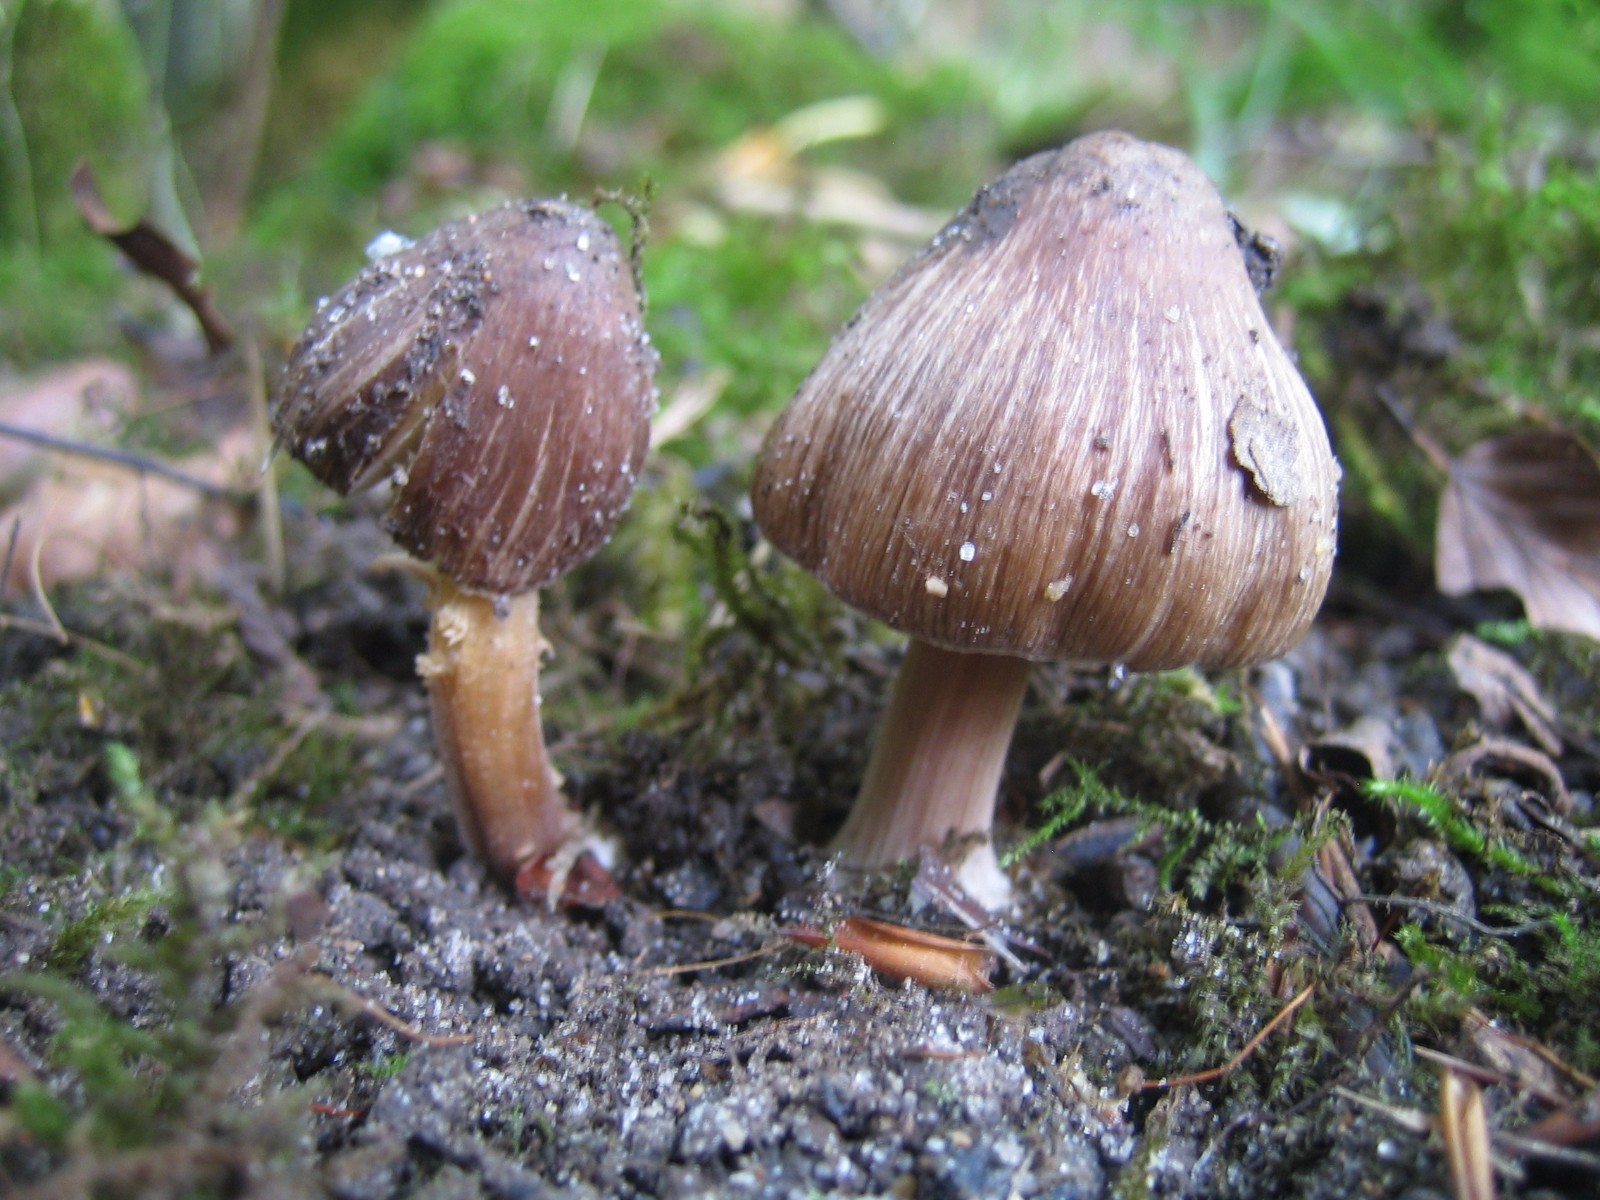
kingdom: Fungi
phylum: Basidiomycota
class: Agaricomycetes
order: Agaricales
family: Inocybaceae
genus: Inocybe
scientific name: Inocybe asterospora
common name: stjernesporet trævlhat
